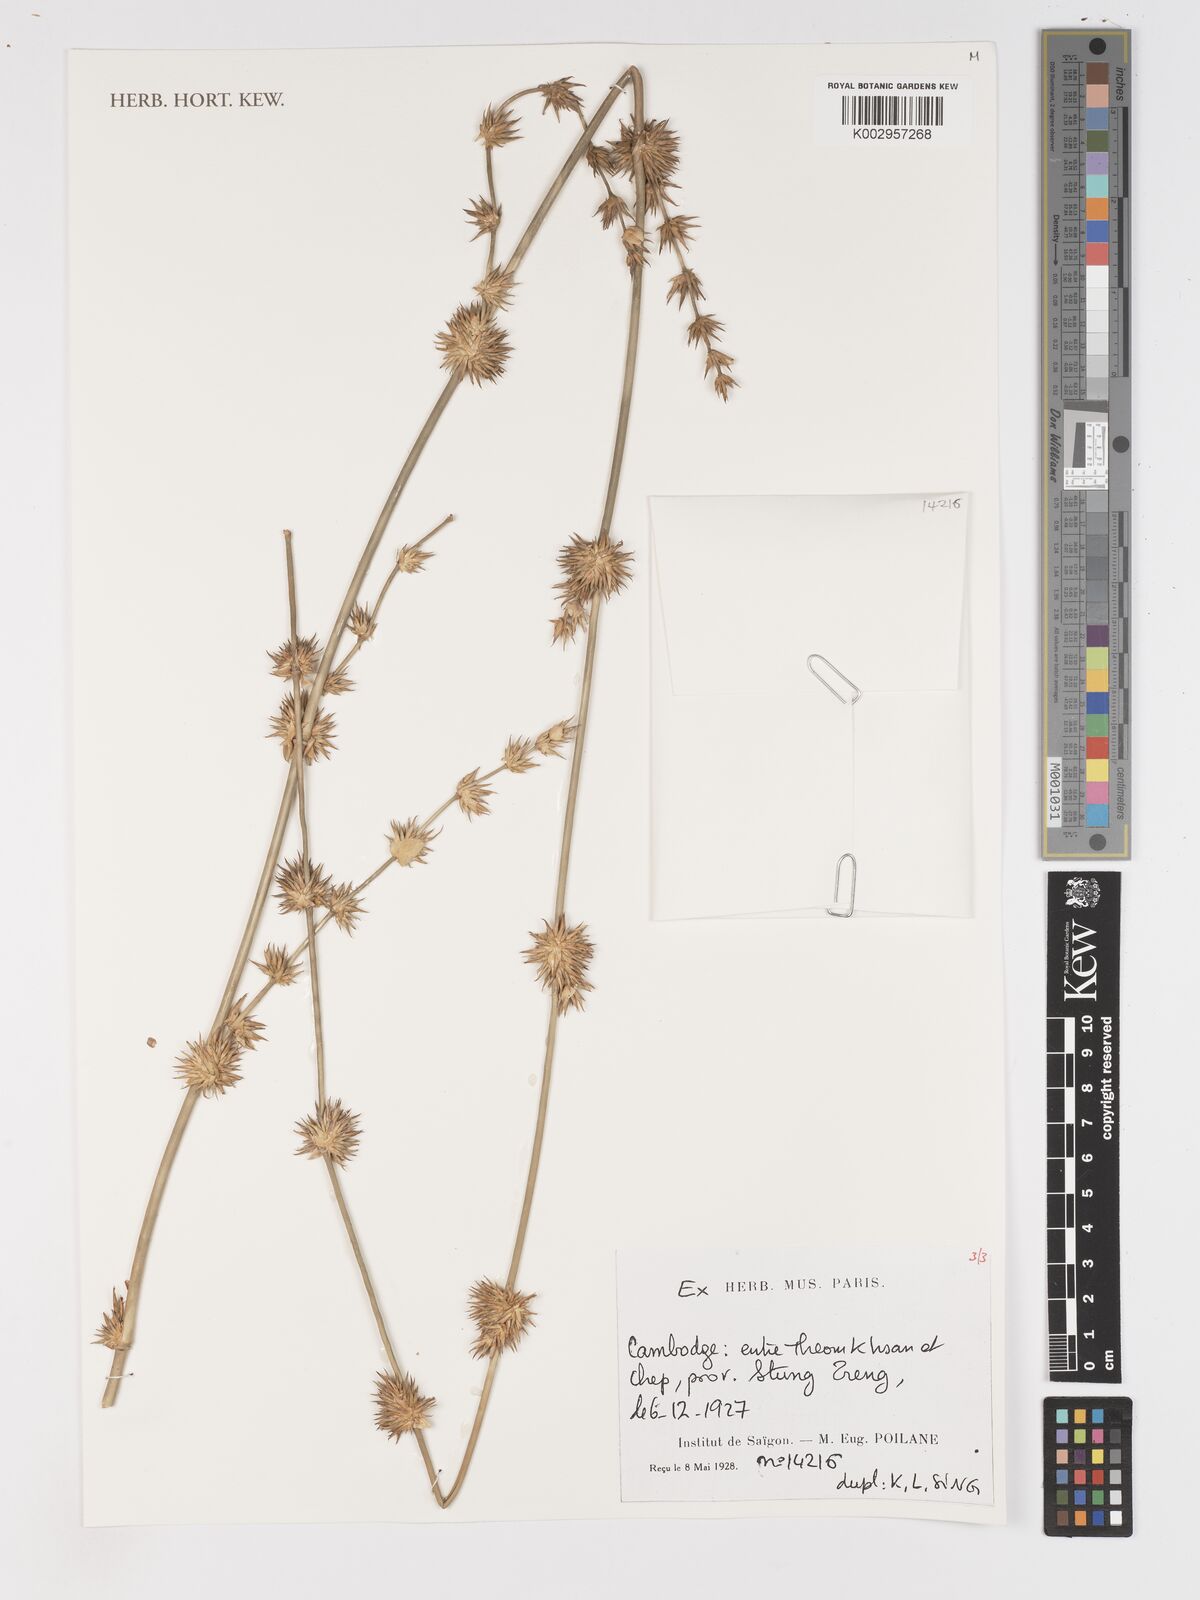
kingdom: Plantae
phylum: Tracheophyta
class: Liliopsida
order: Poales
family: Poaceae
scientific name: Poaceae
